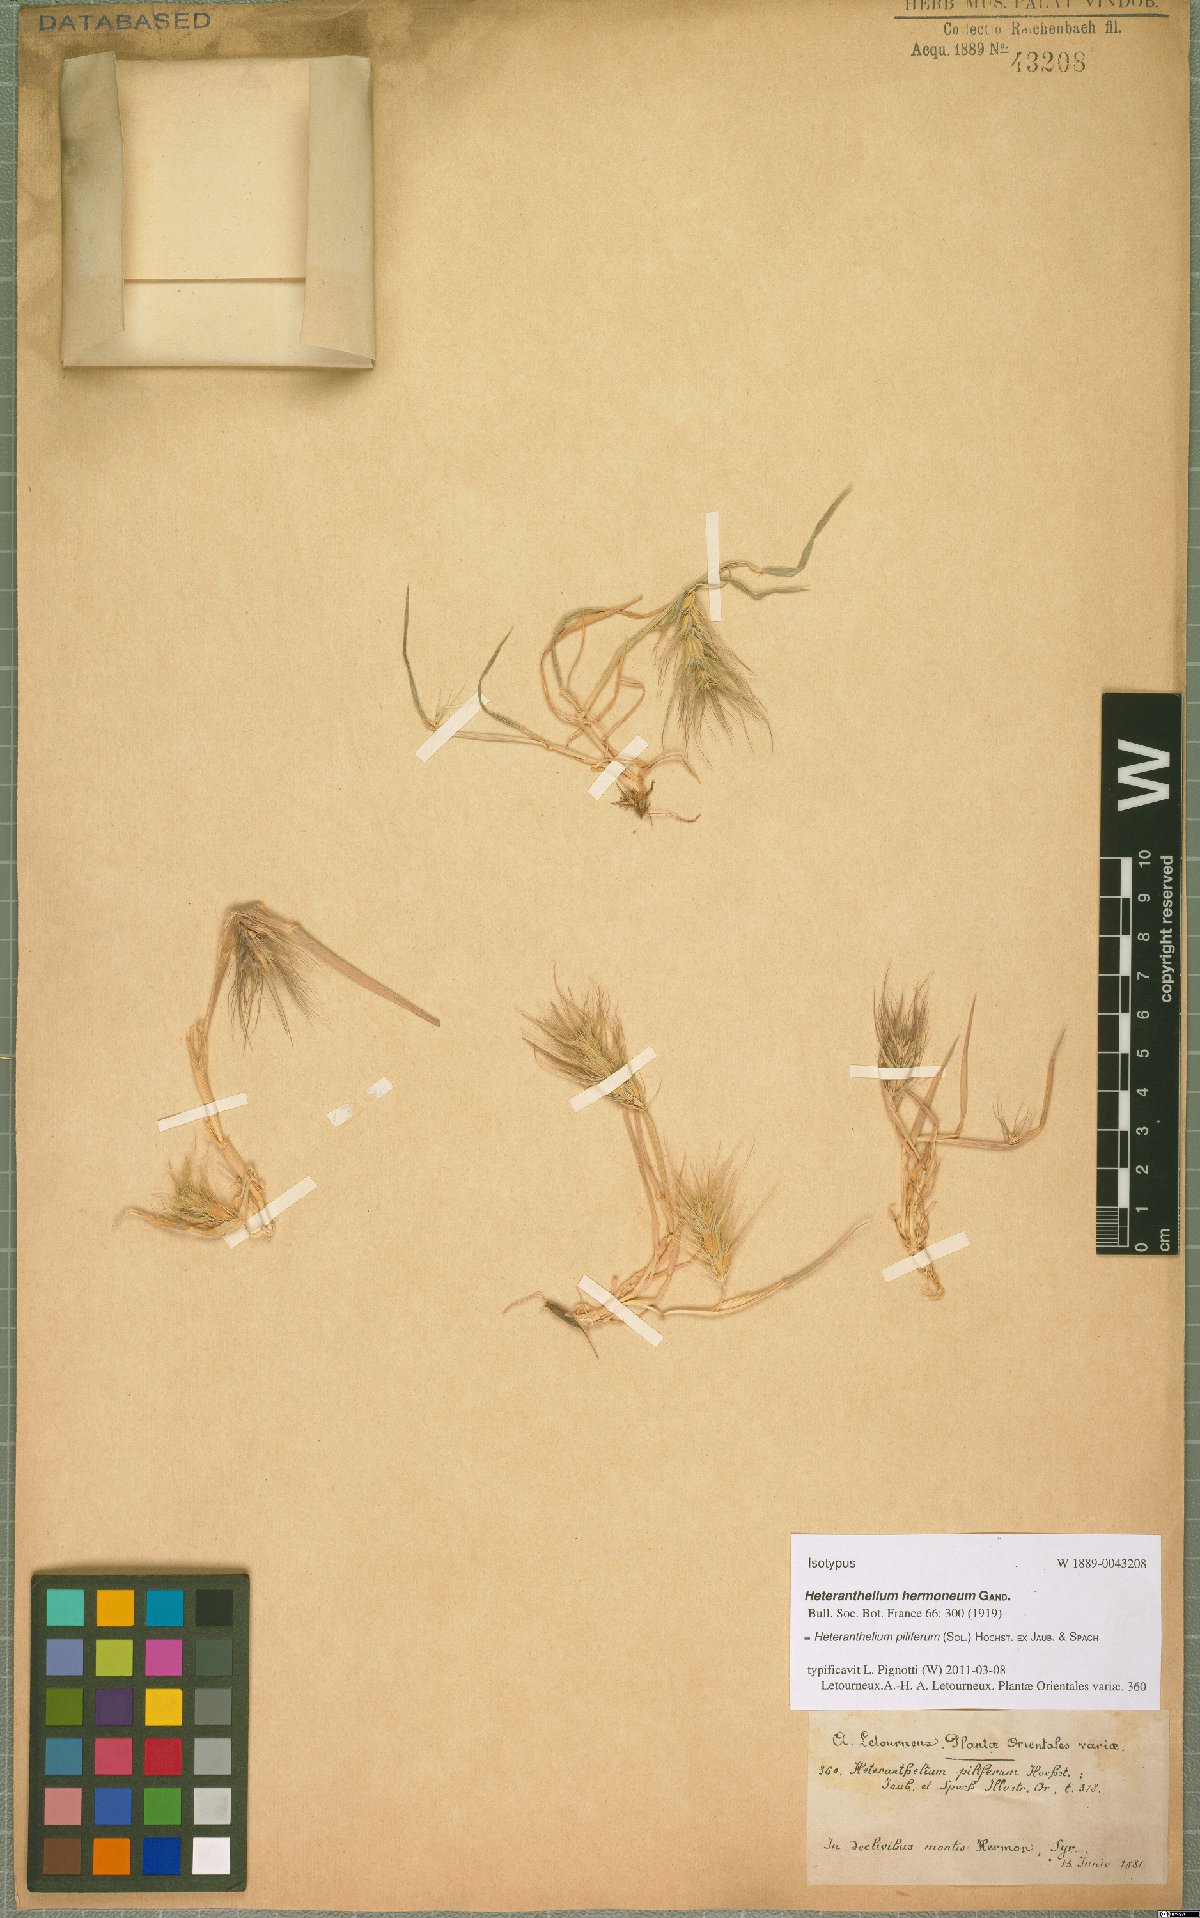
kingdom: Plantae
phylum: Tracheophyta
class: Liliopsida
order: Poales
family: Poaceae
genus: Heteranthelium
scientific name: Heteranthelium piliferum
